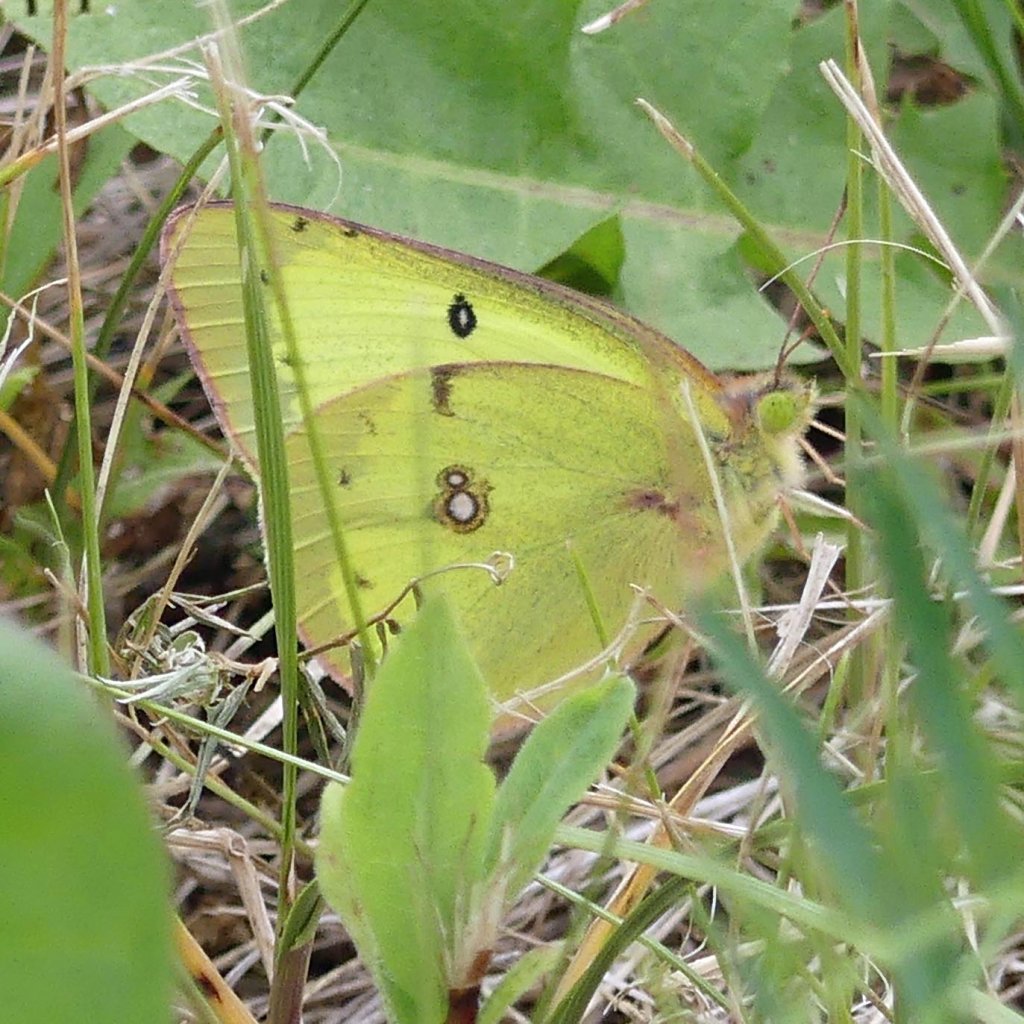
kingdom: Animalia
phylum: Arthropoda
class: Insecta
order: Lepidoptera
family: Pieridae
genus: Colias
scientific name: Colias philodice
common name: Clouded Sulphur
